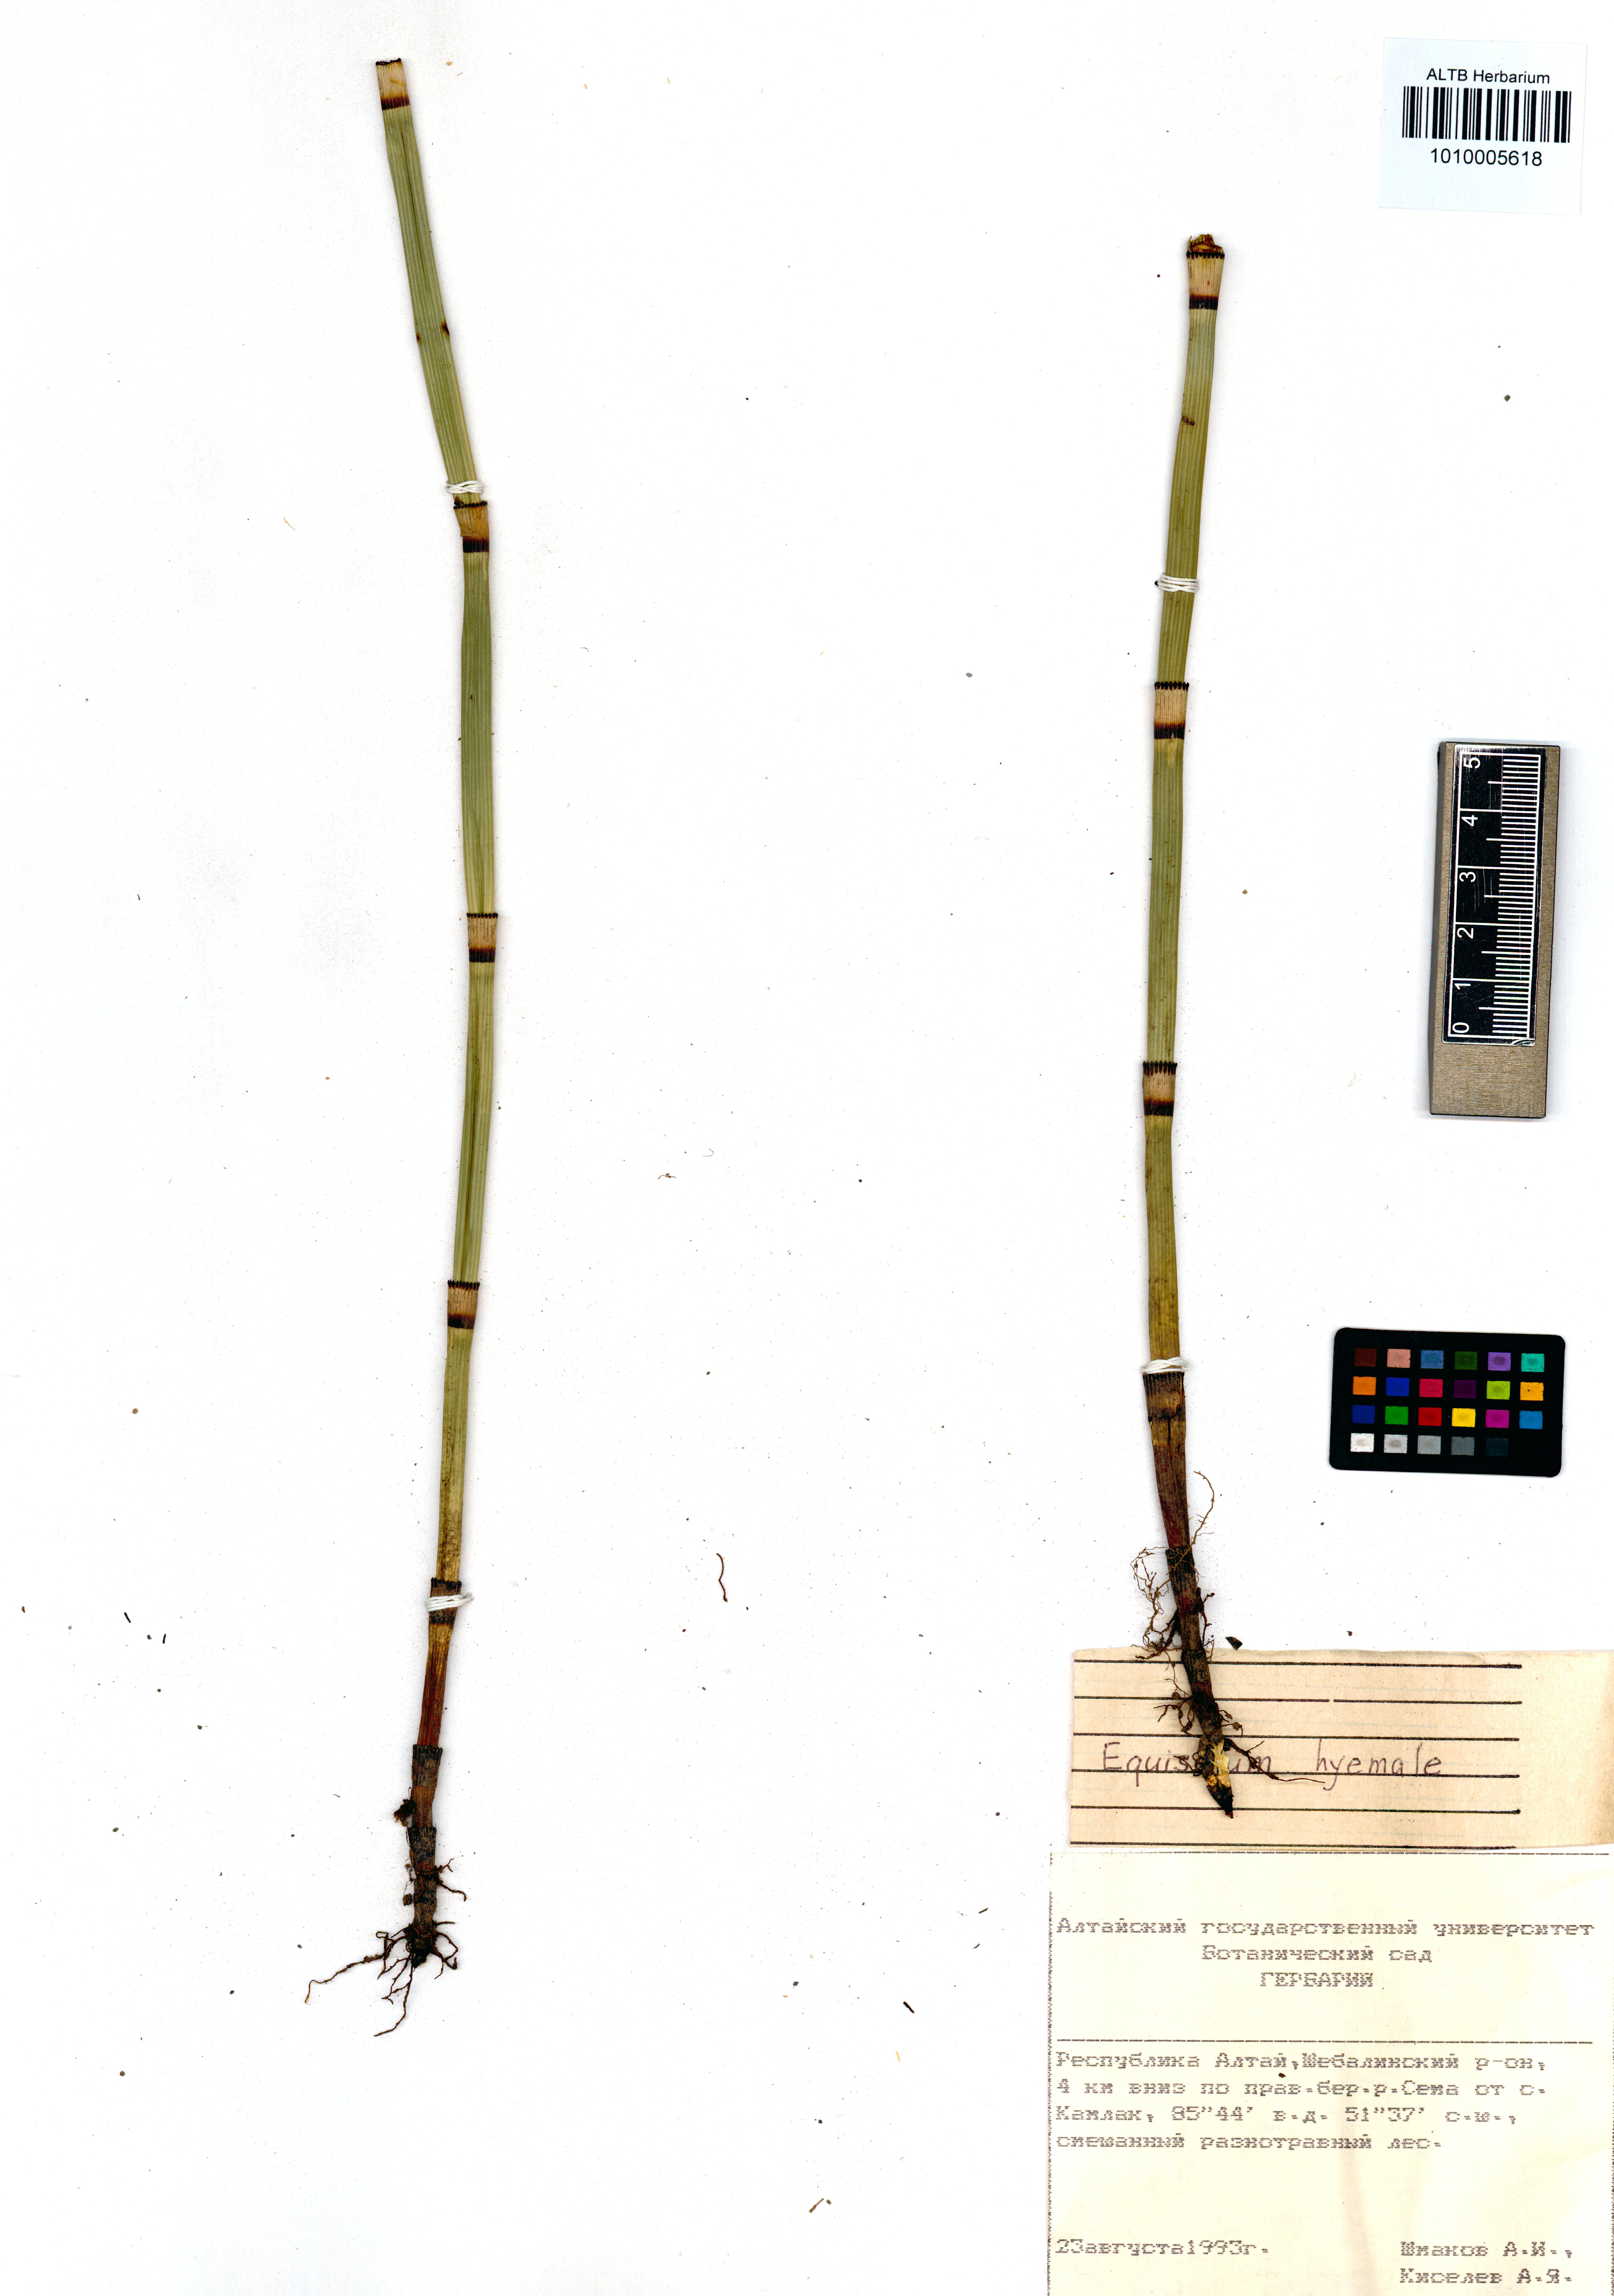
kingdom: Plantae
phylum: Tracheophyta
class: Polypodiopsida
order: Equisetales
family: Equisetaceae
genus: Equisetum
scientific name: Equisetum hyemale
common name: Rough horsetail
